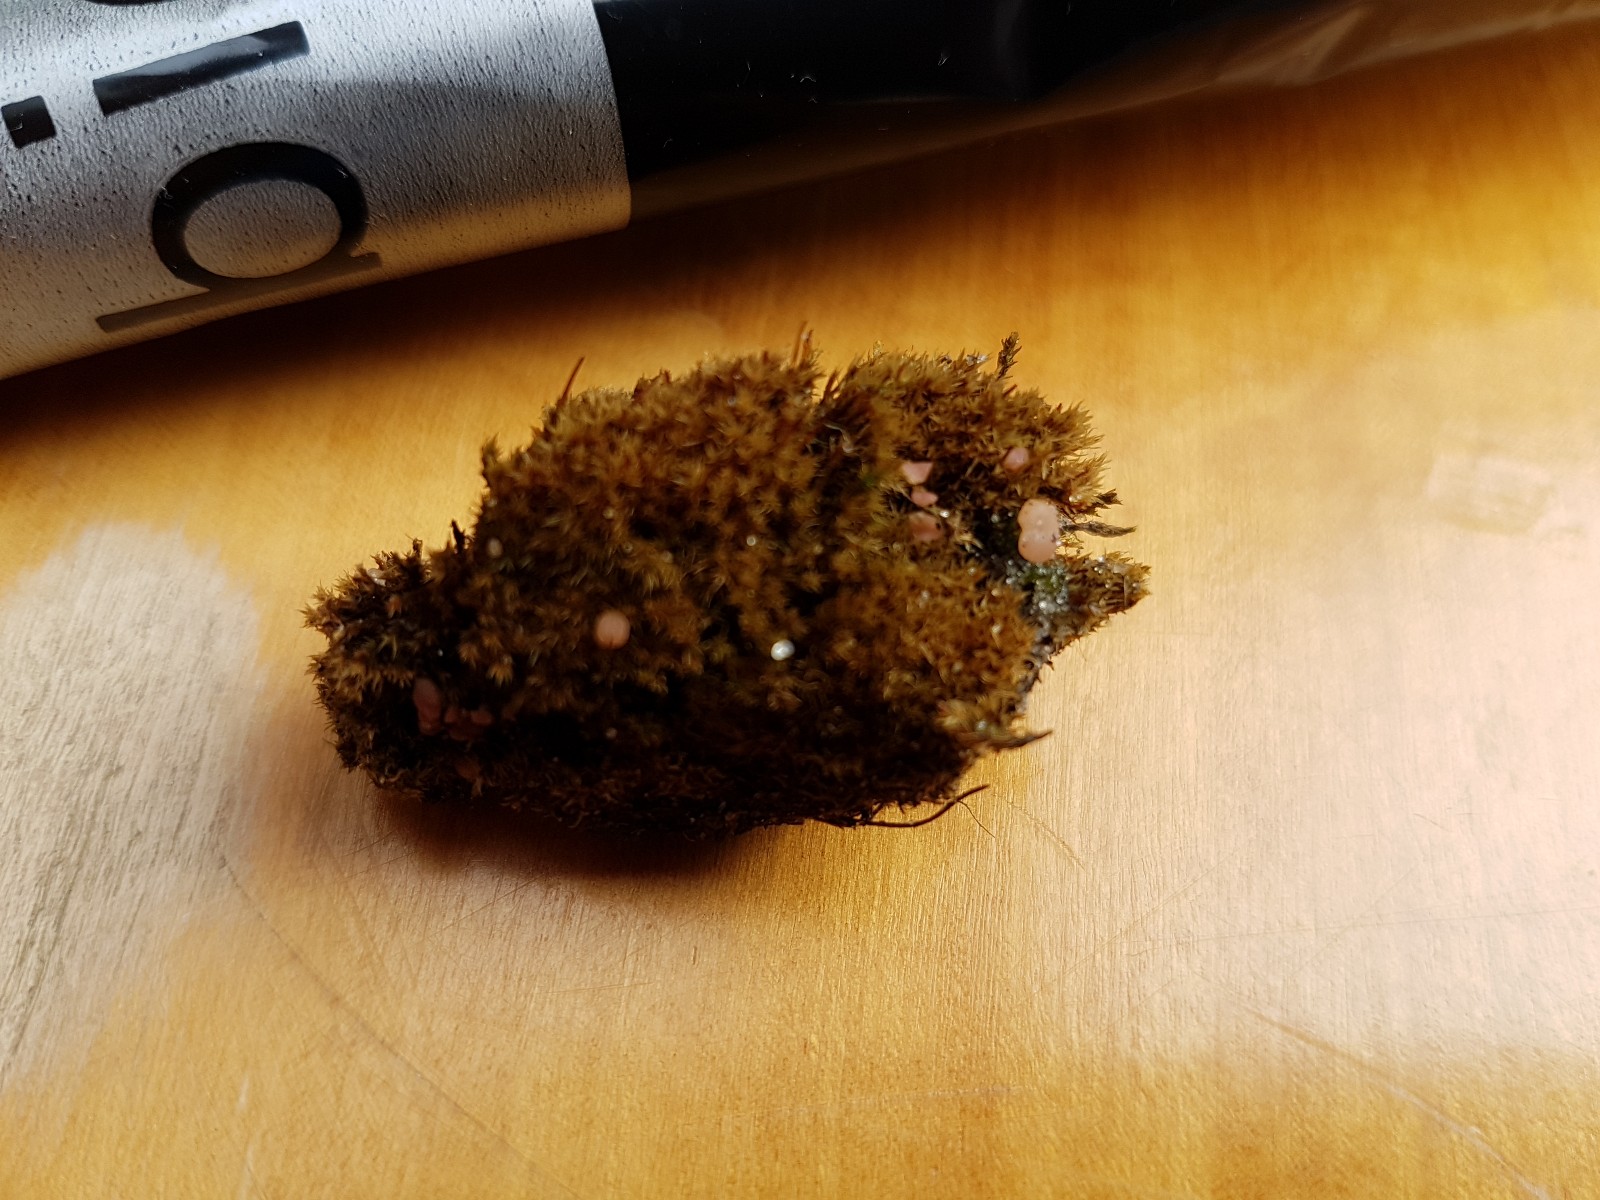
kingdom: Fungi
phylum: Ascomycota
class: Leotiomycetes
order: Helotiales
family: Hyaloscyphaceae
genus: Roseodiscus
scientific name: Roseodiscus formosus
